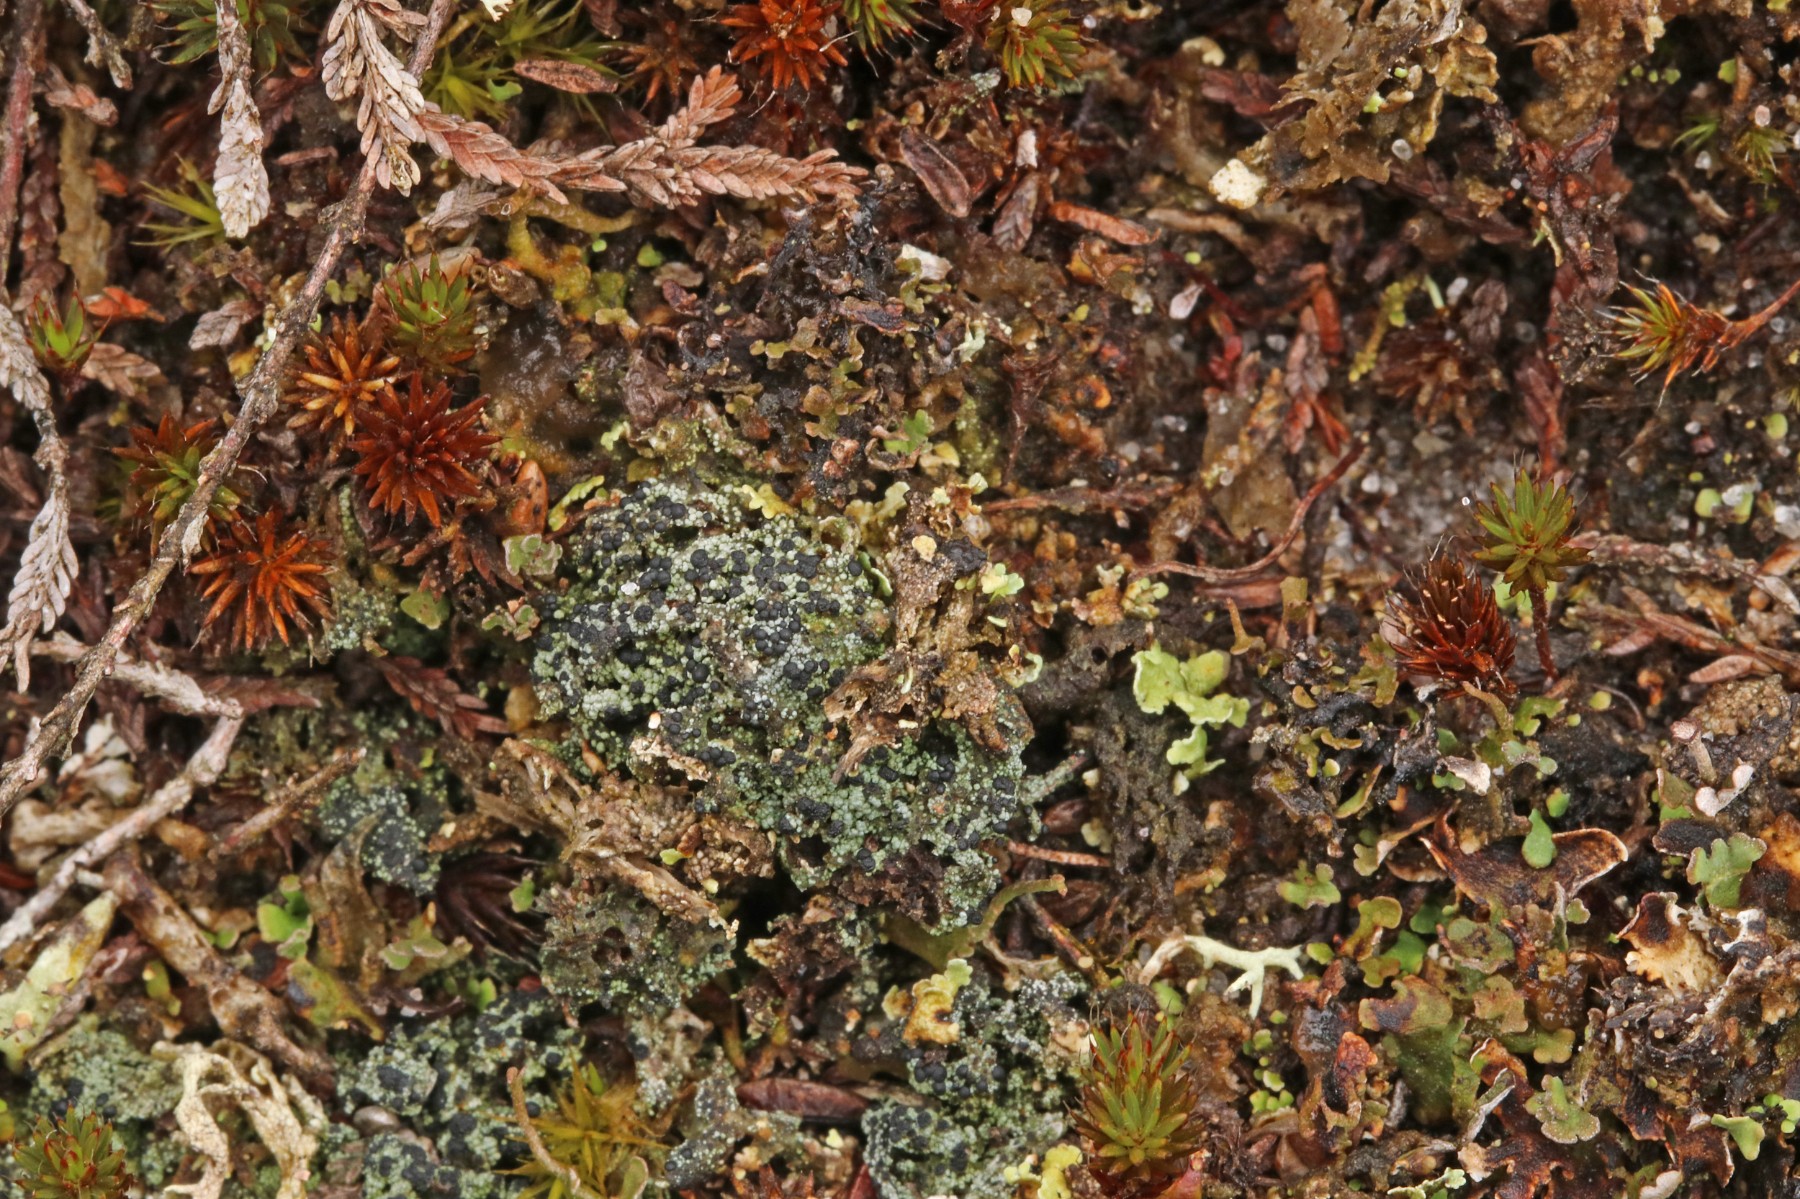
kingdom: Fungi
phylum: Ascomycota
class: Lecanoromycetes
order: Lecanorales
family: Byssolomataceae
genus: Micarea
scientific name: Micarea lignaria
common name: tørve-knaplav
